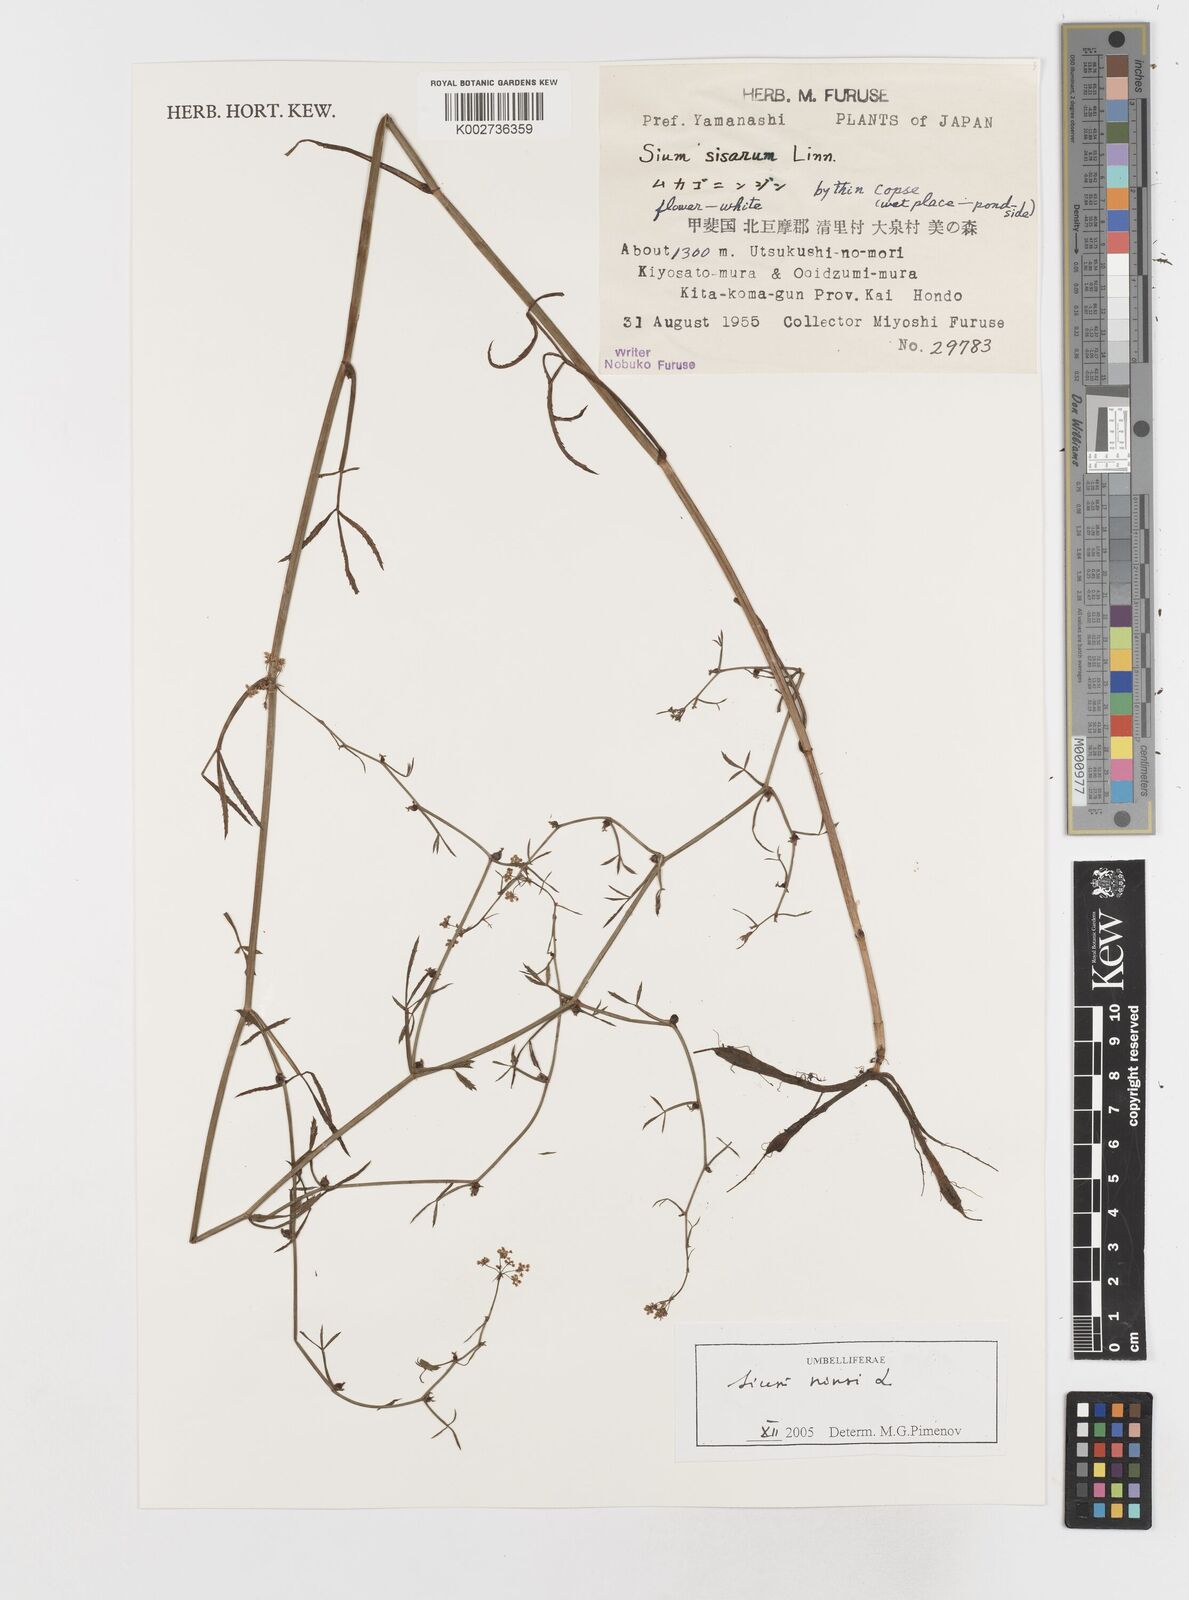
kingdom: Plantae
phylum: Tracheophyta
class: Magnoliopsida
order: Apiales
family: Apiaceae
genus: Sium
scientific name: Sium ninsi
